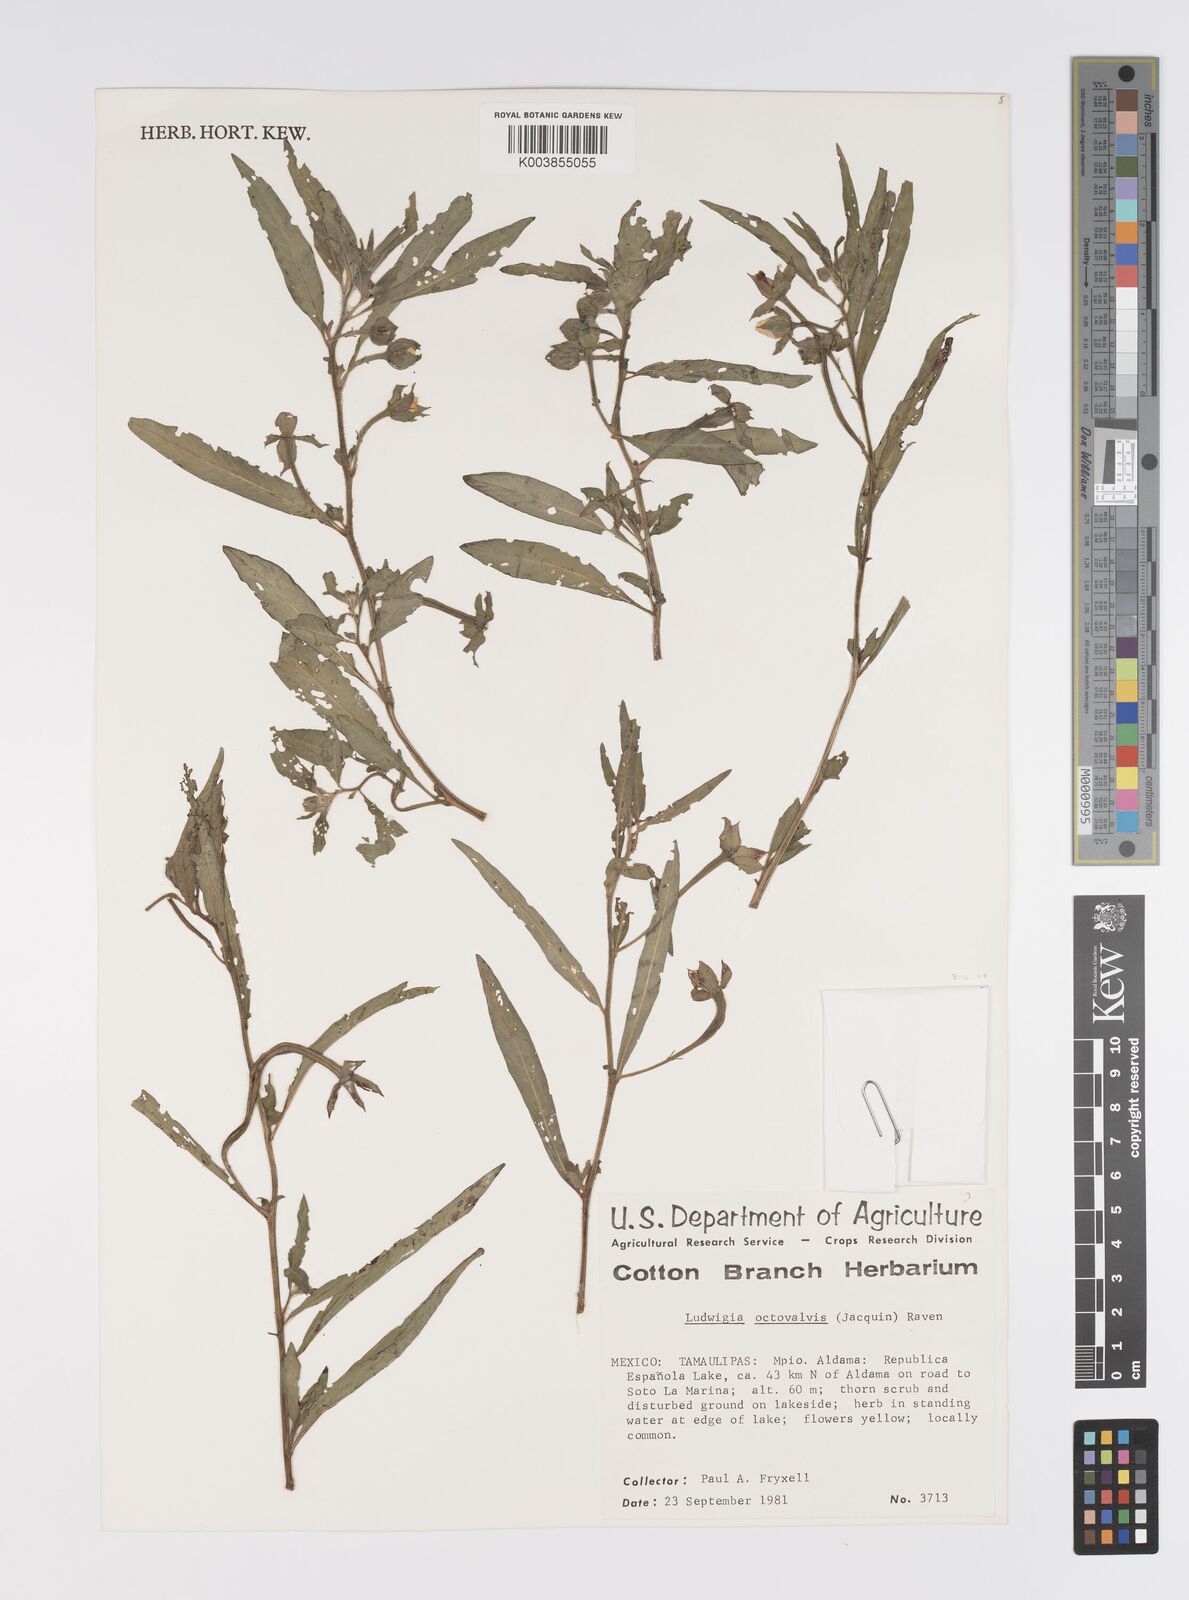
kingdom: Plantae
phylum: Tracheophyta
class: Magnoliopsida
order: Myrtales
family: Onagraceae
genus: Ludwigia
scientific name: Ludwigia octovalvis
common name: Water-primrose
